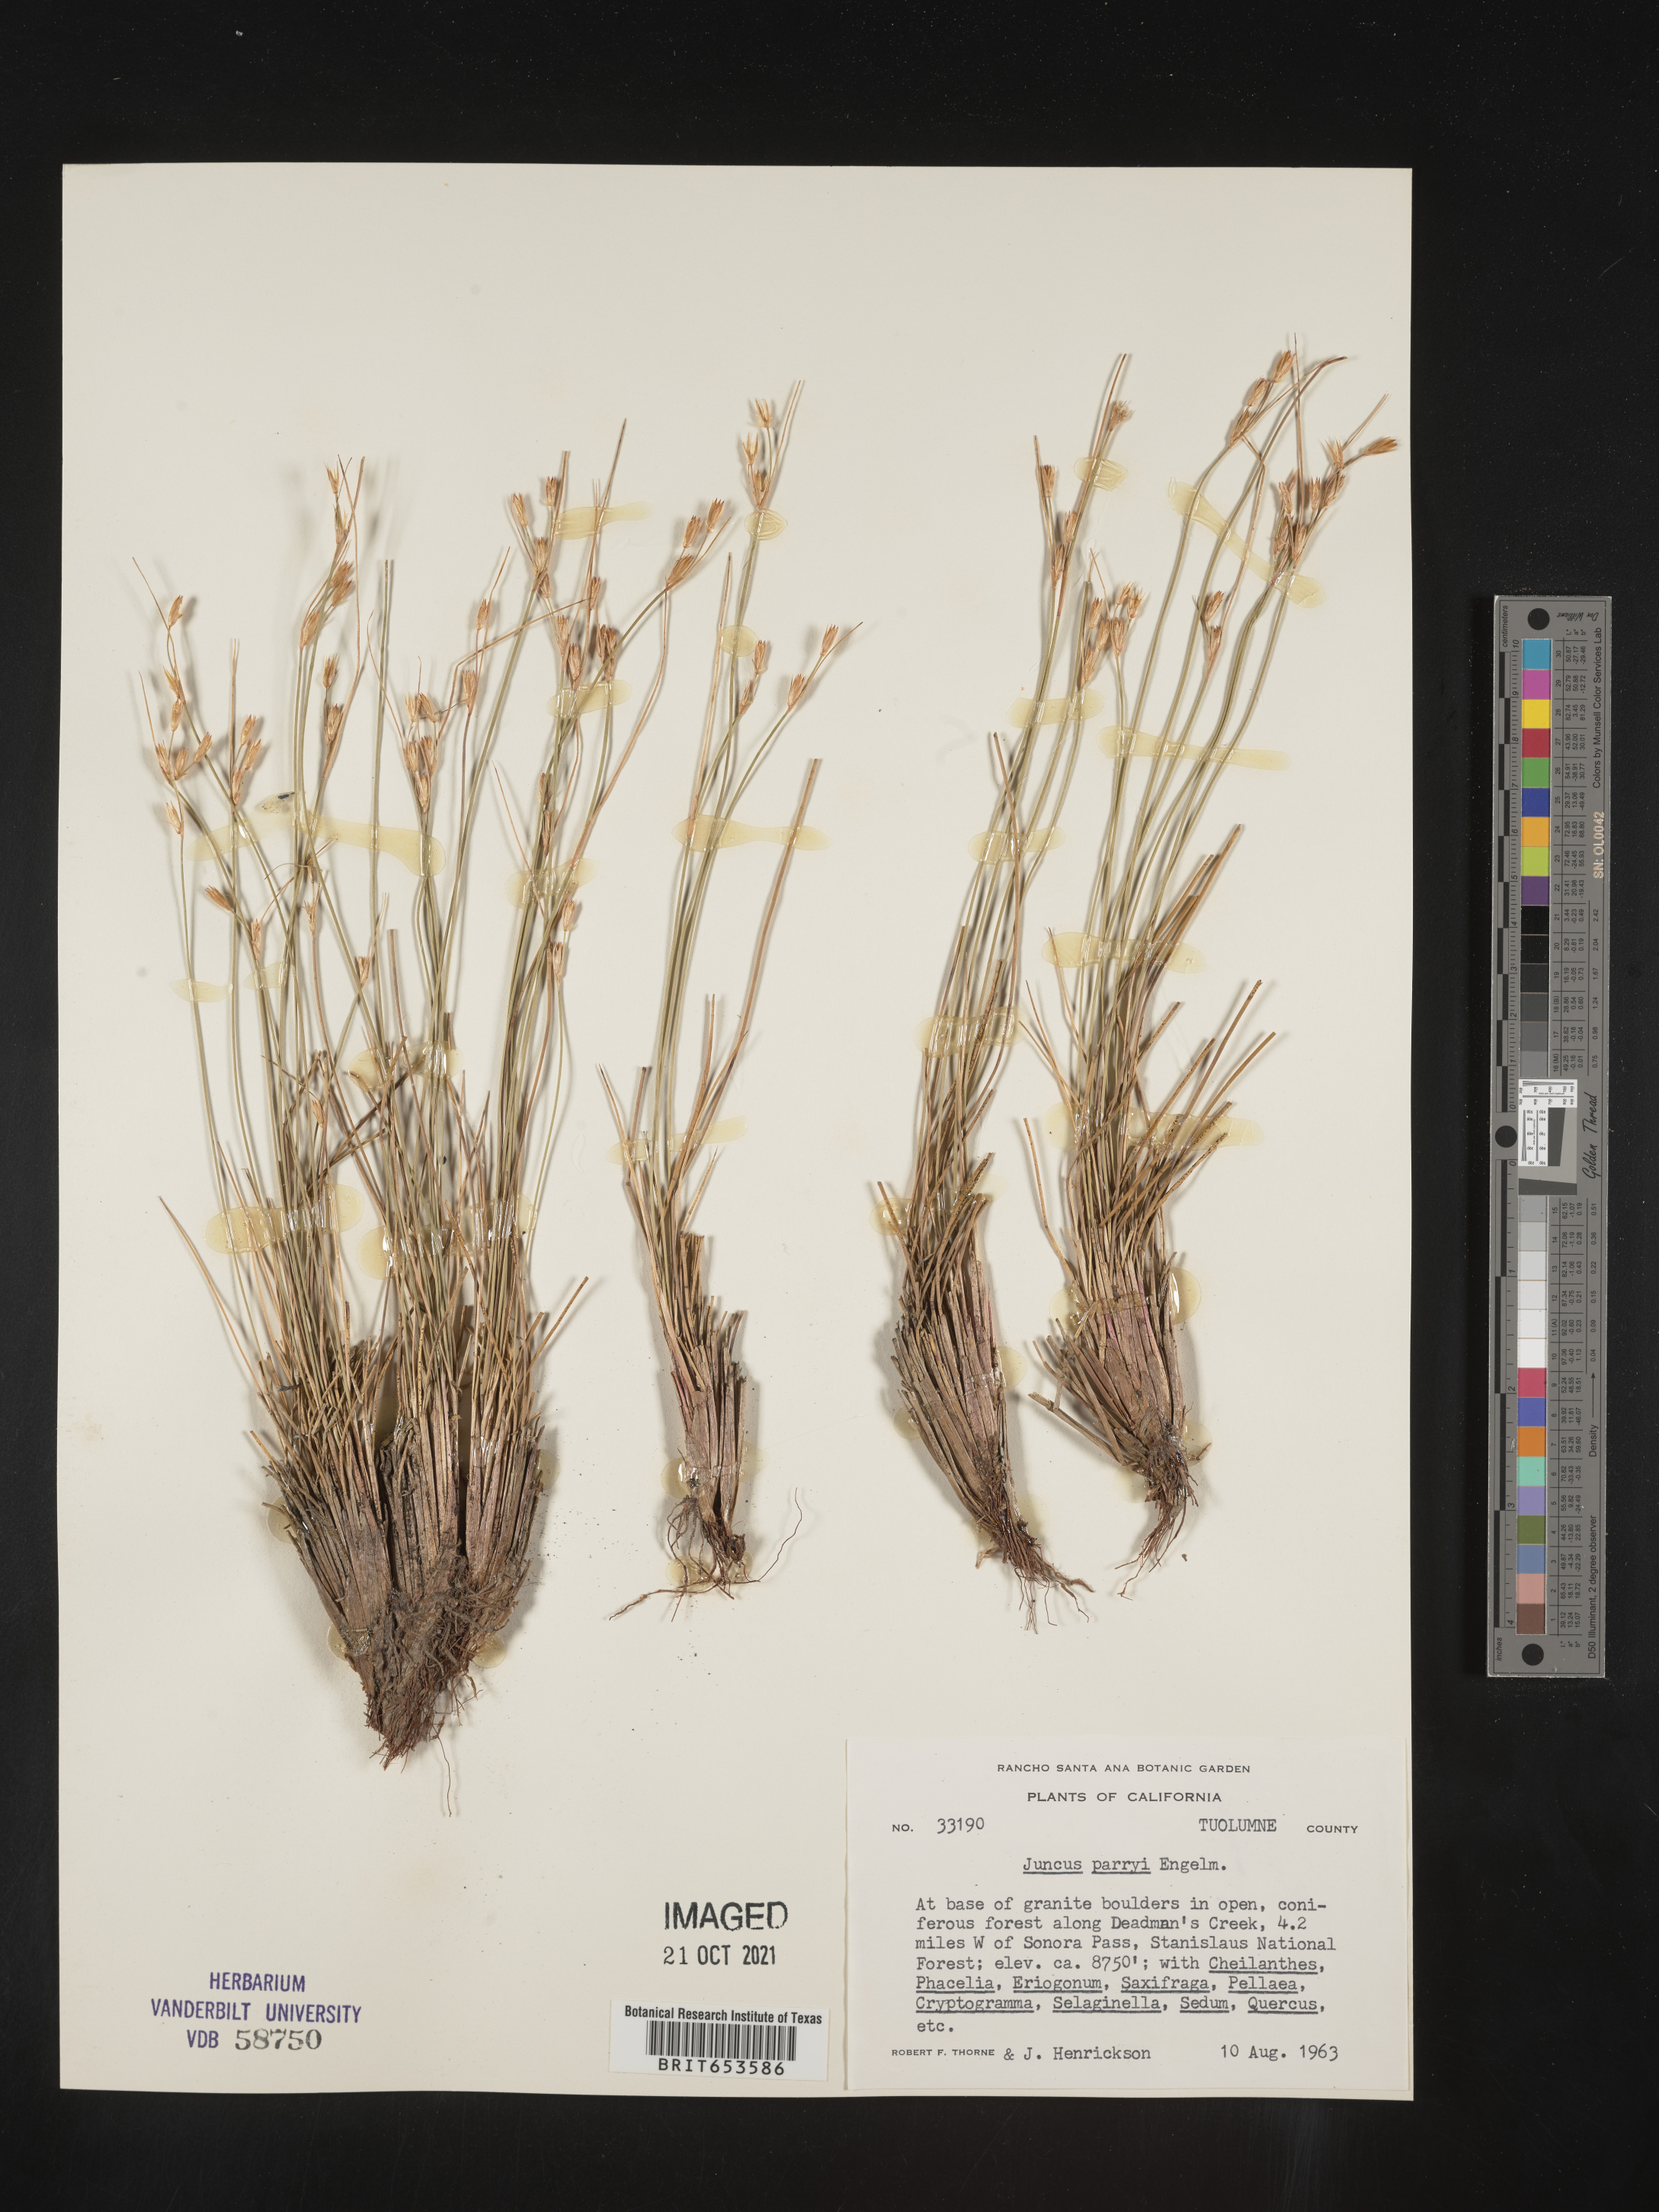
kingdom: Plantae
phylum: Tracheophyta
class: Liliopsida
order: Poales
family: Juncaceae
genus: Juncus
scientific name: Juncus parryi
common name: Parry's rush
